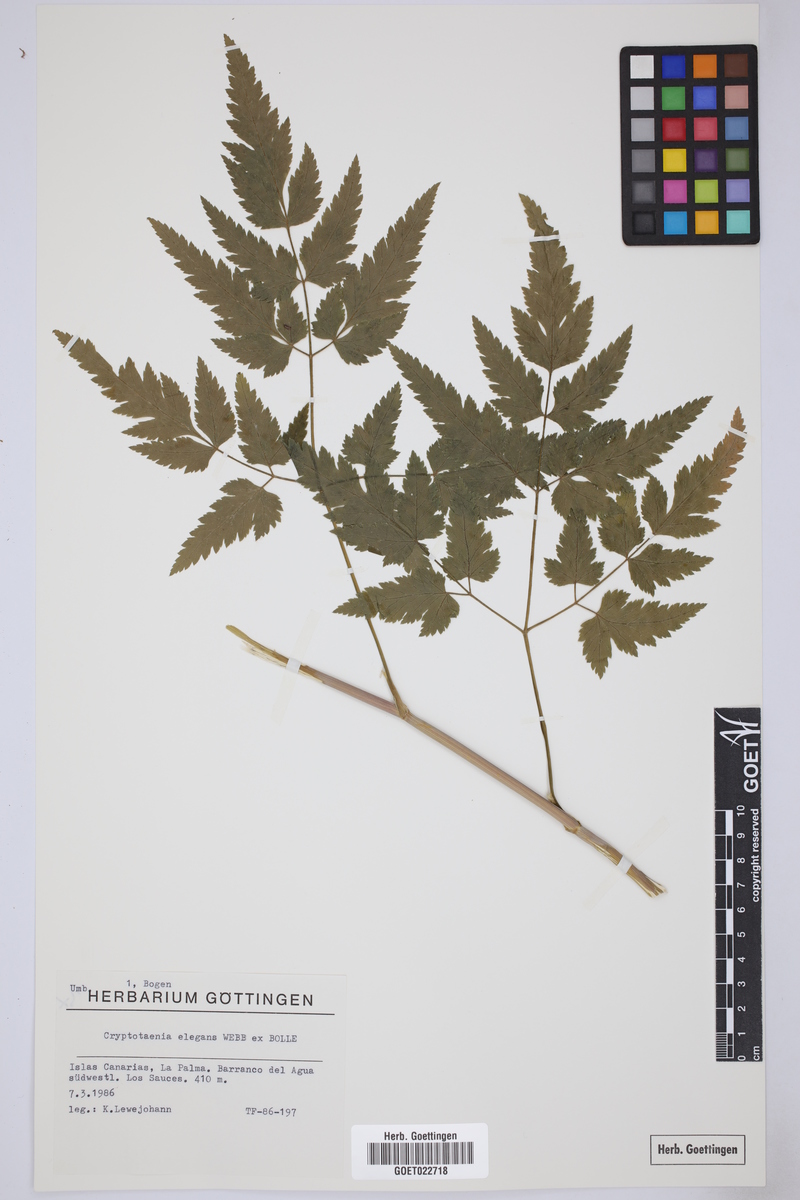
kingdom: Plantae
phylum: Tracheophyta
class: Magnoliopsida
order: Apiales
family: Apiaceae
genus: Daucus
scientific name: Daucus elegans
